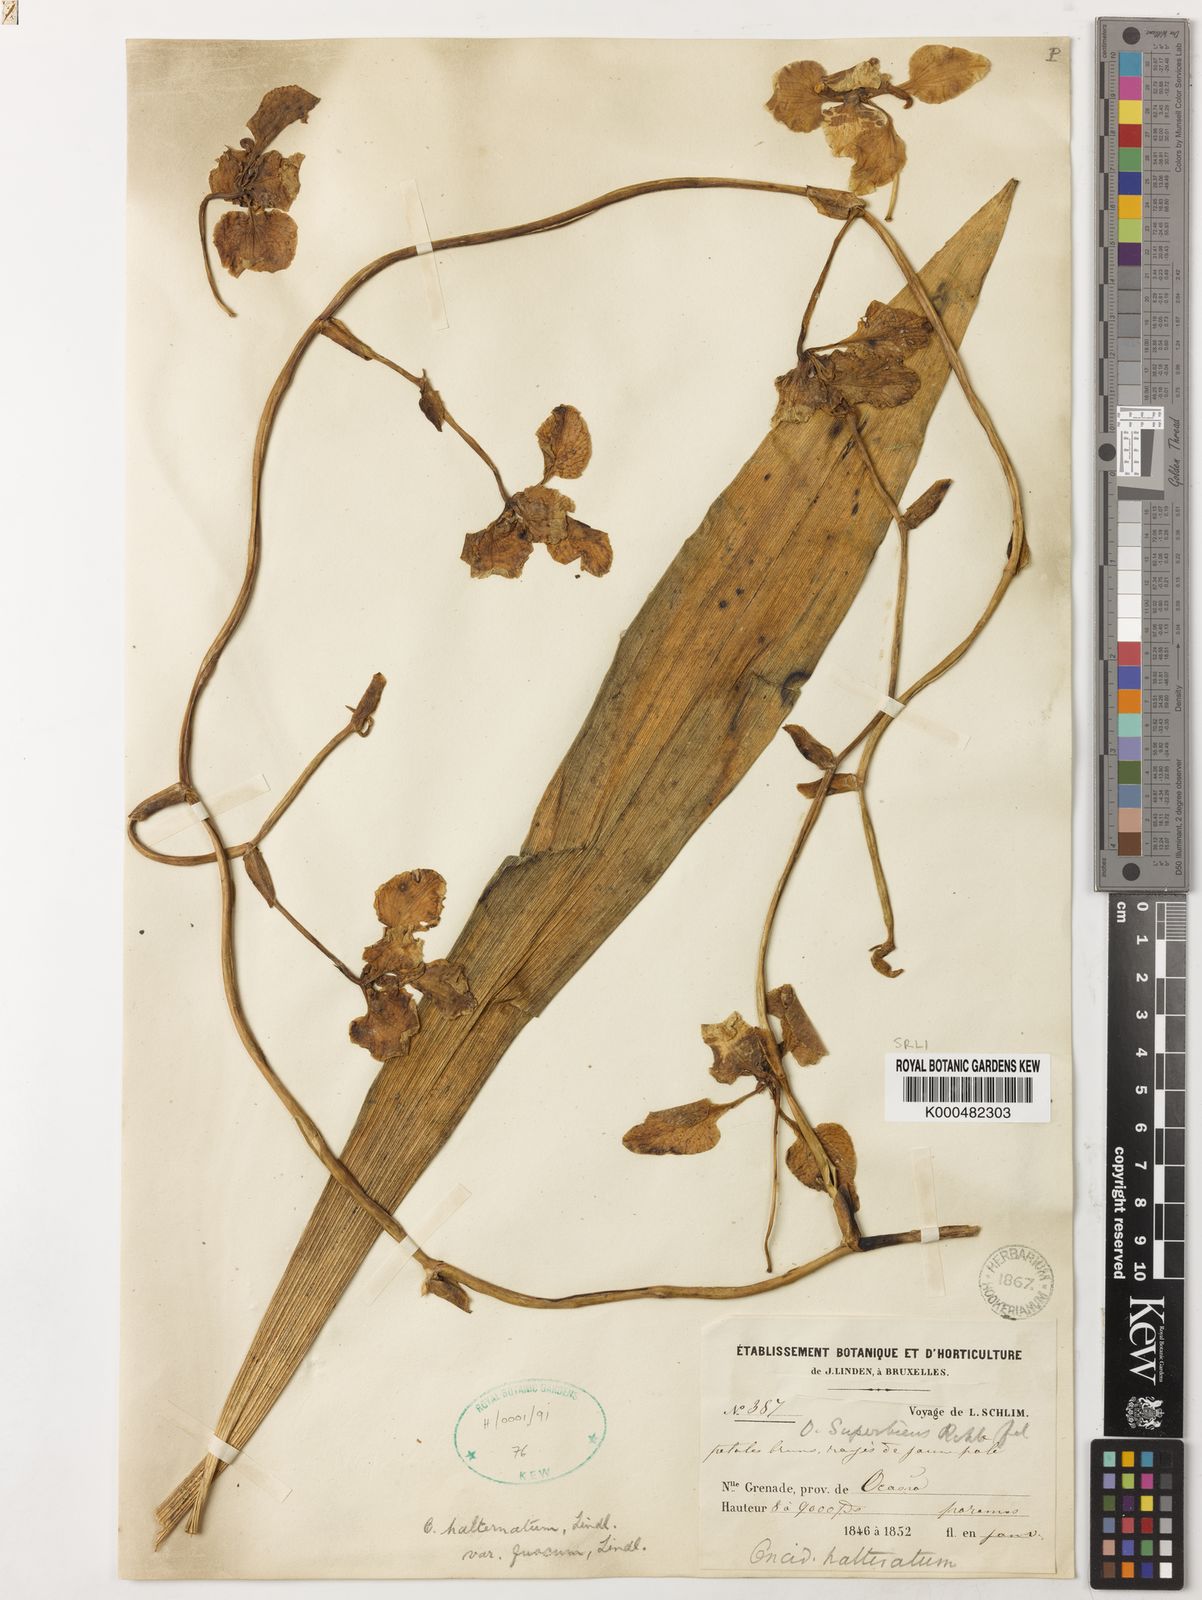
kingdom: Plantae
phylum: Tracheophyta
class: Liliopsida
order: Asparagales
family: Orchidaceae
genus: Cyrtochilum
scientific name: Cyrtochilum halteratum
